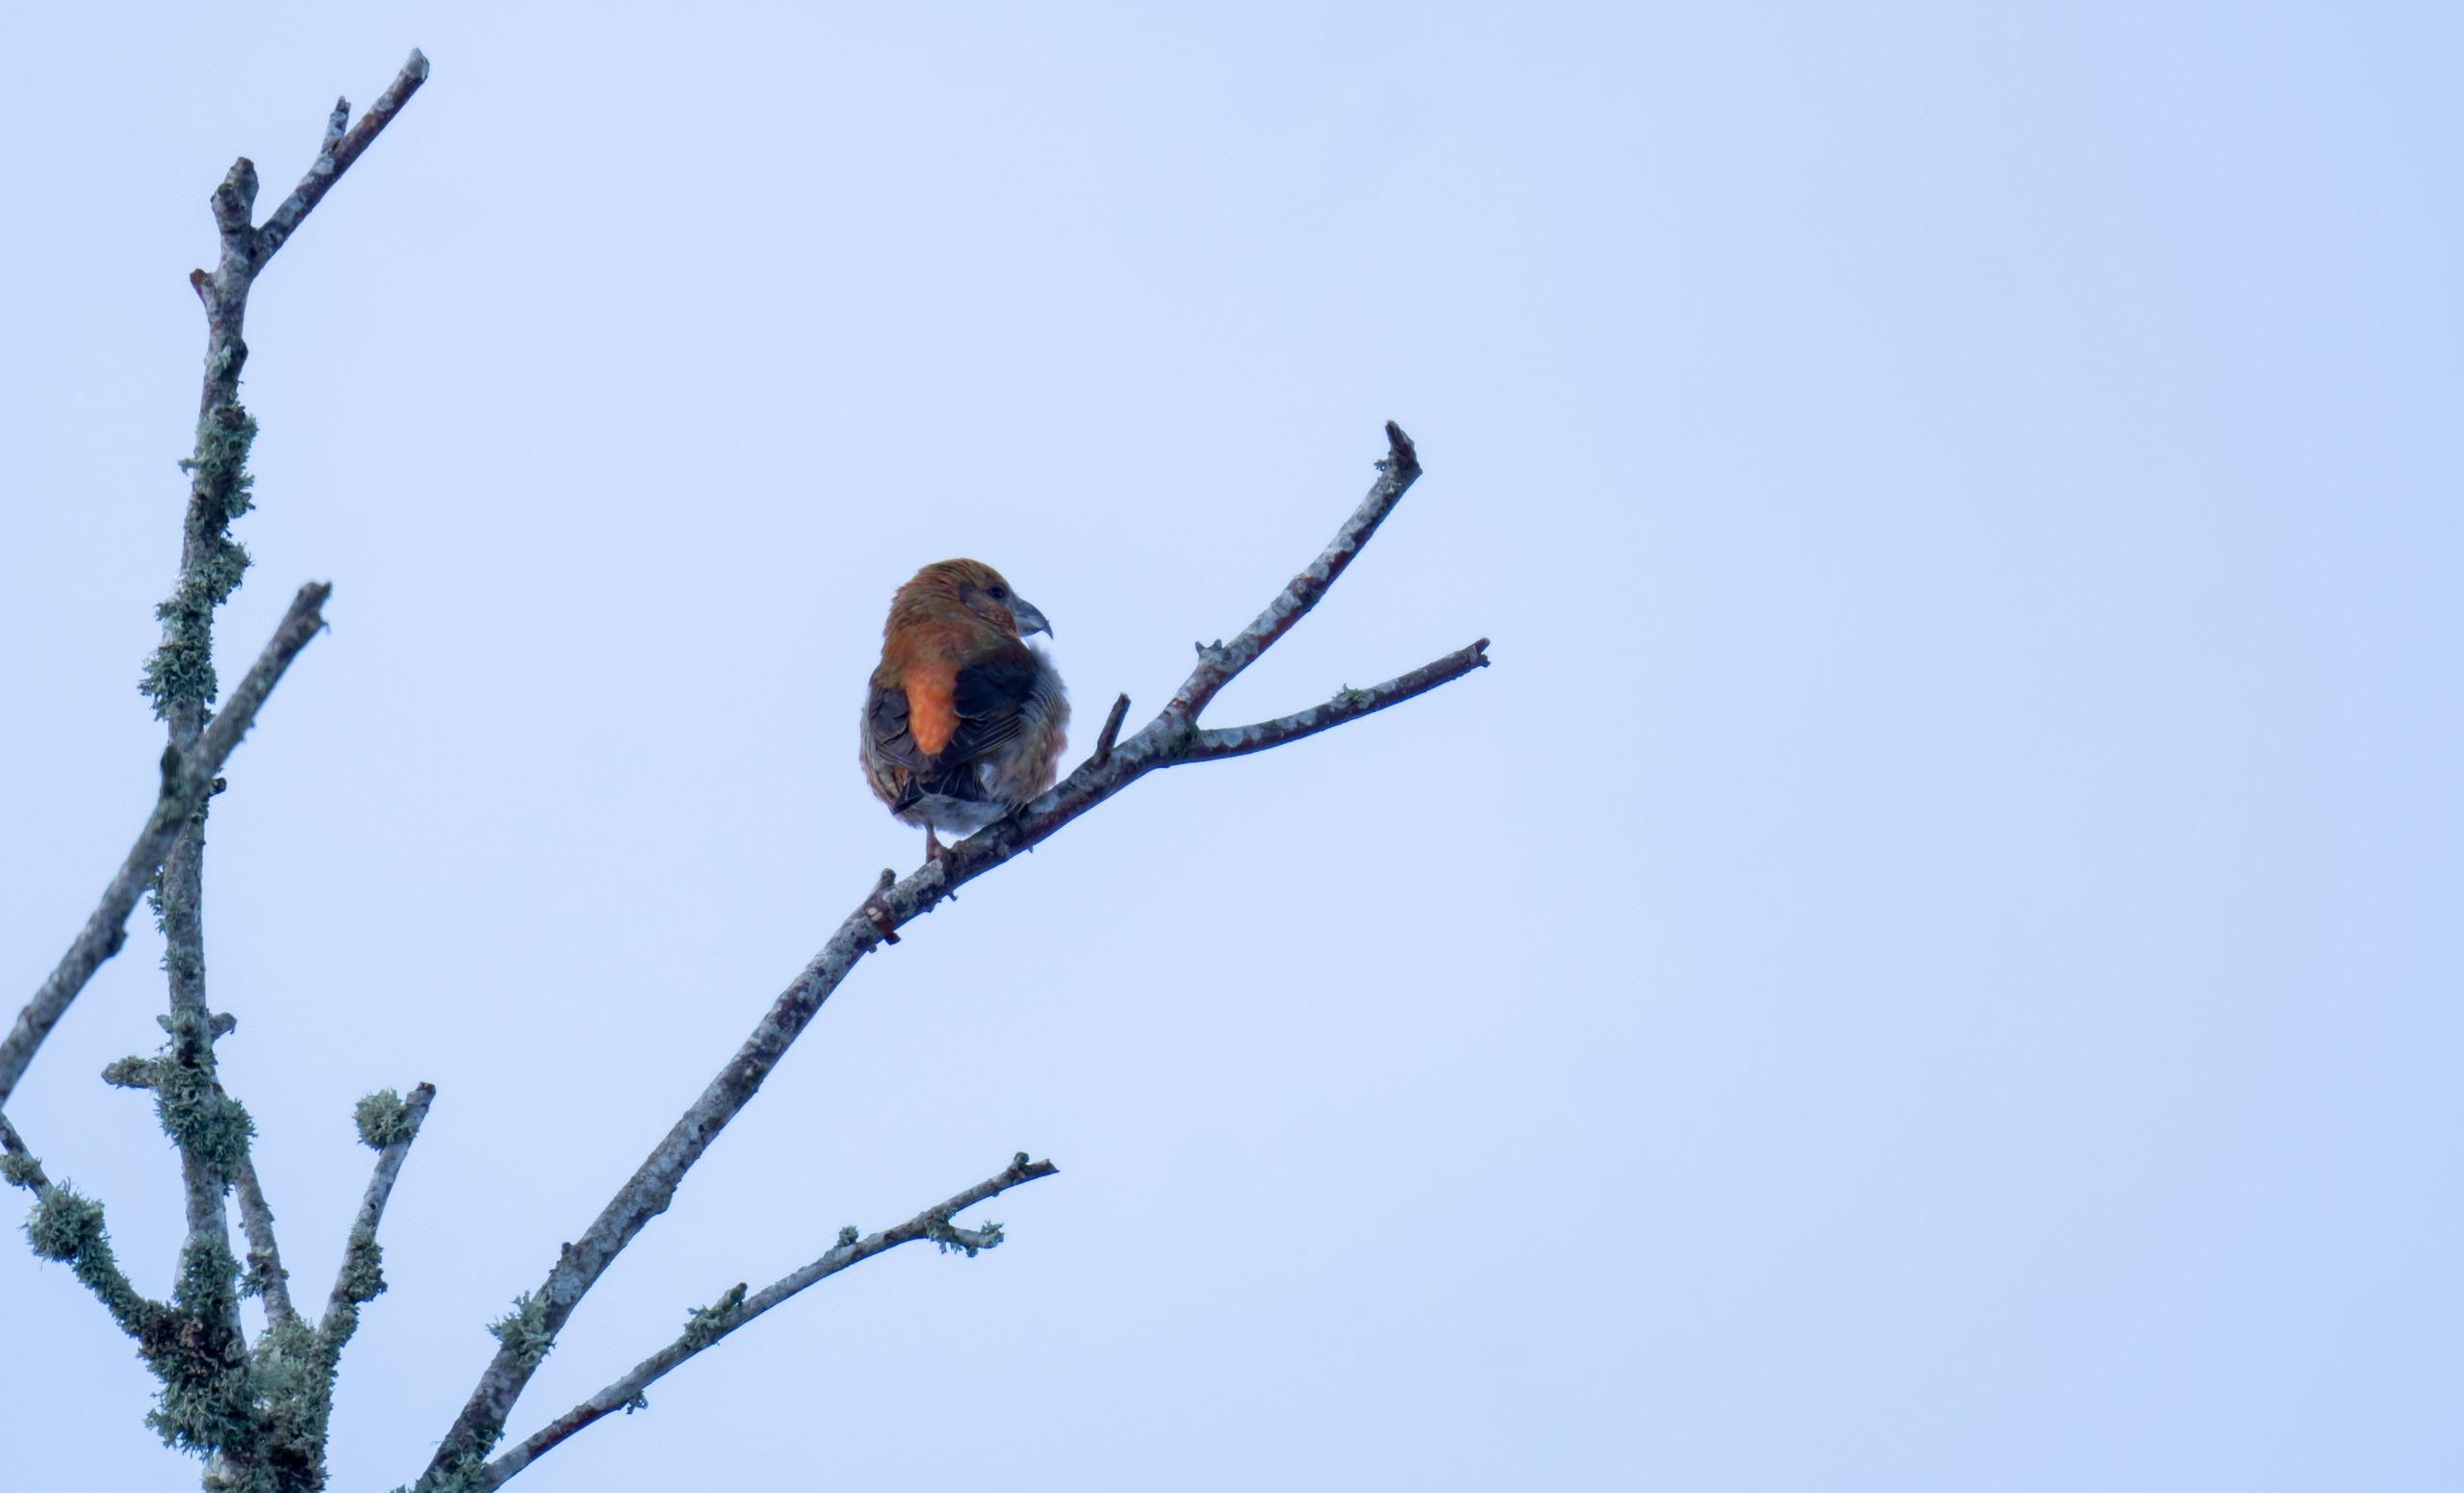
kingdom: Animalia
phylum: Chordata
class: Aves
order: Passeriformes
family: Fringillidae
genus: Loxia
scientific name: Loxia curvirostra
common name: Lille korsnæb
